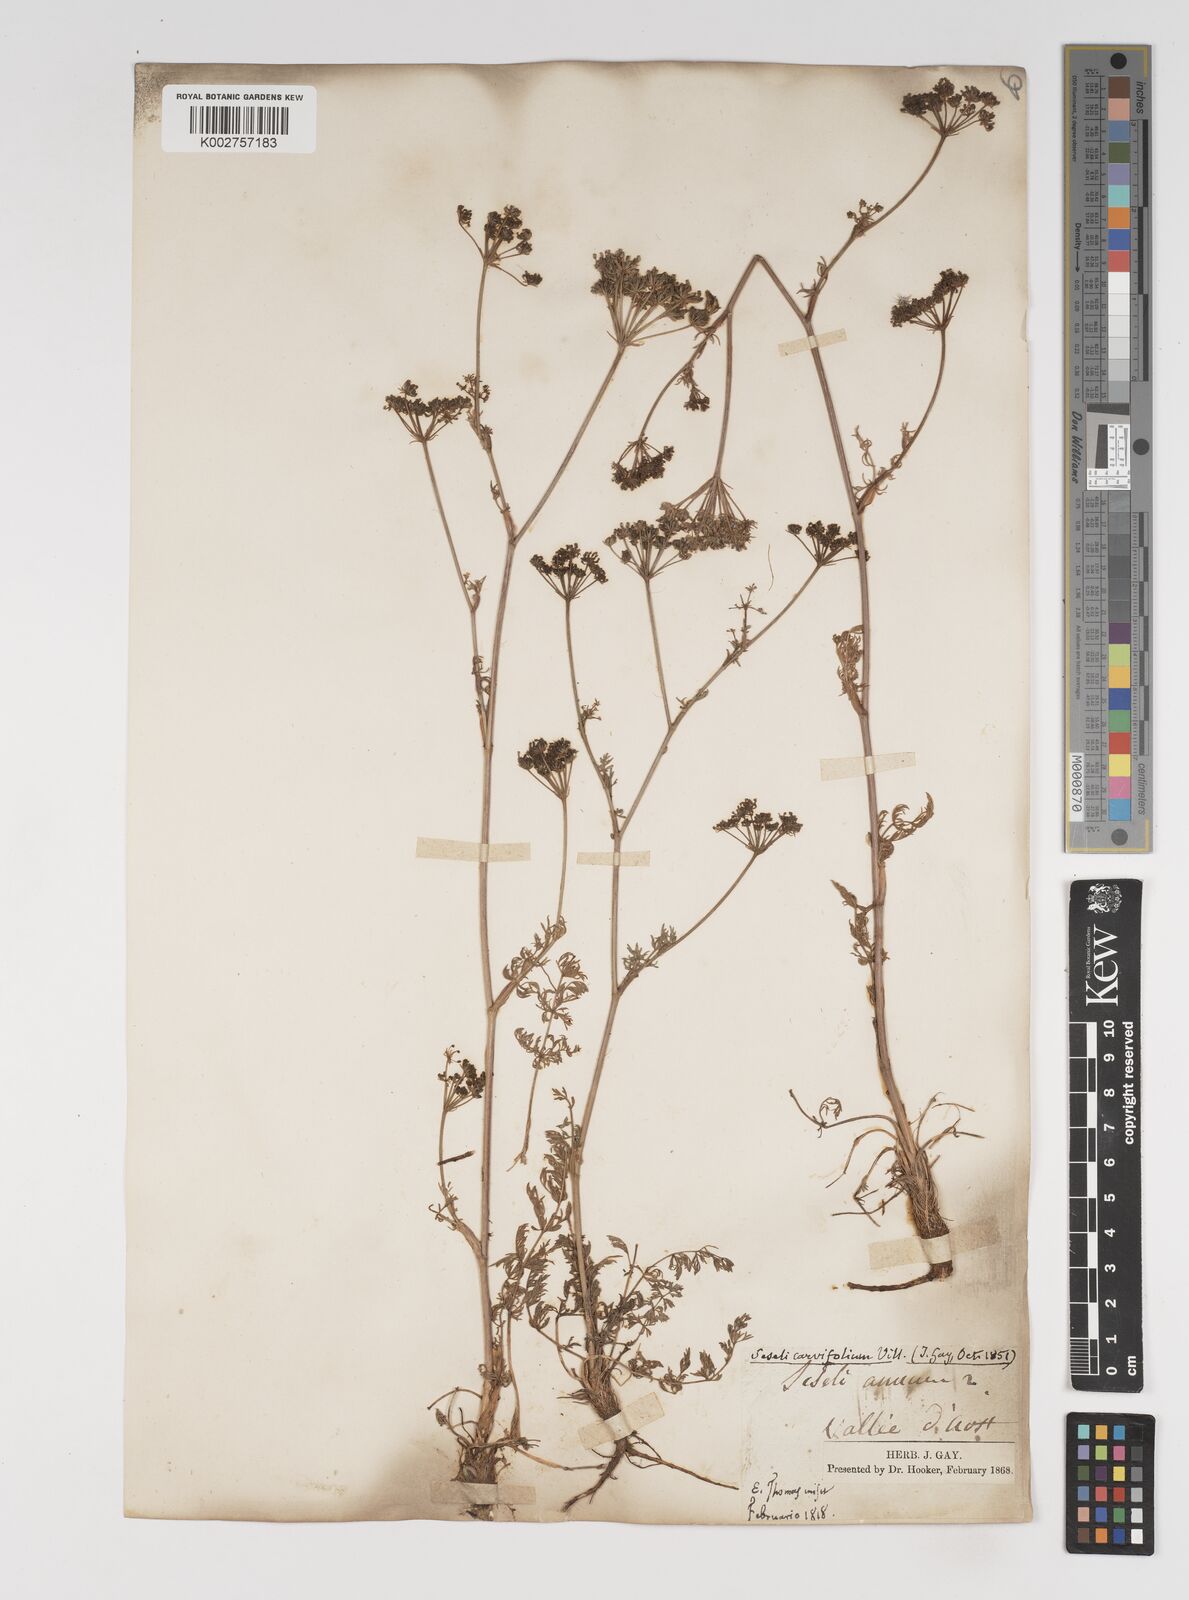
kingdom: Plantae
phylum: Tracheophyta
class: Magnoliopsida
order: Apiales
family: Apiaceae
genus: Seseli
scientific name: Seseli annuum
